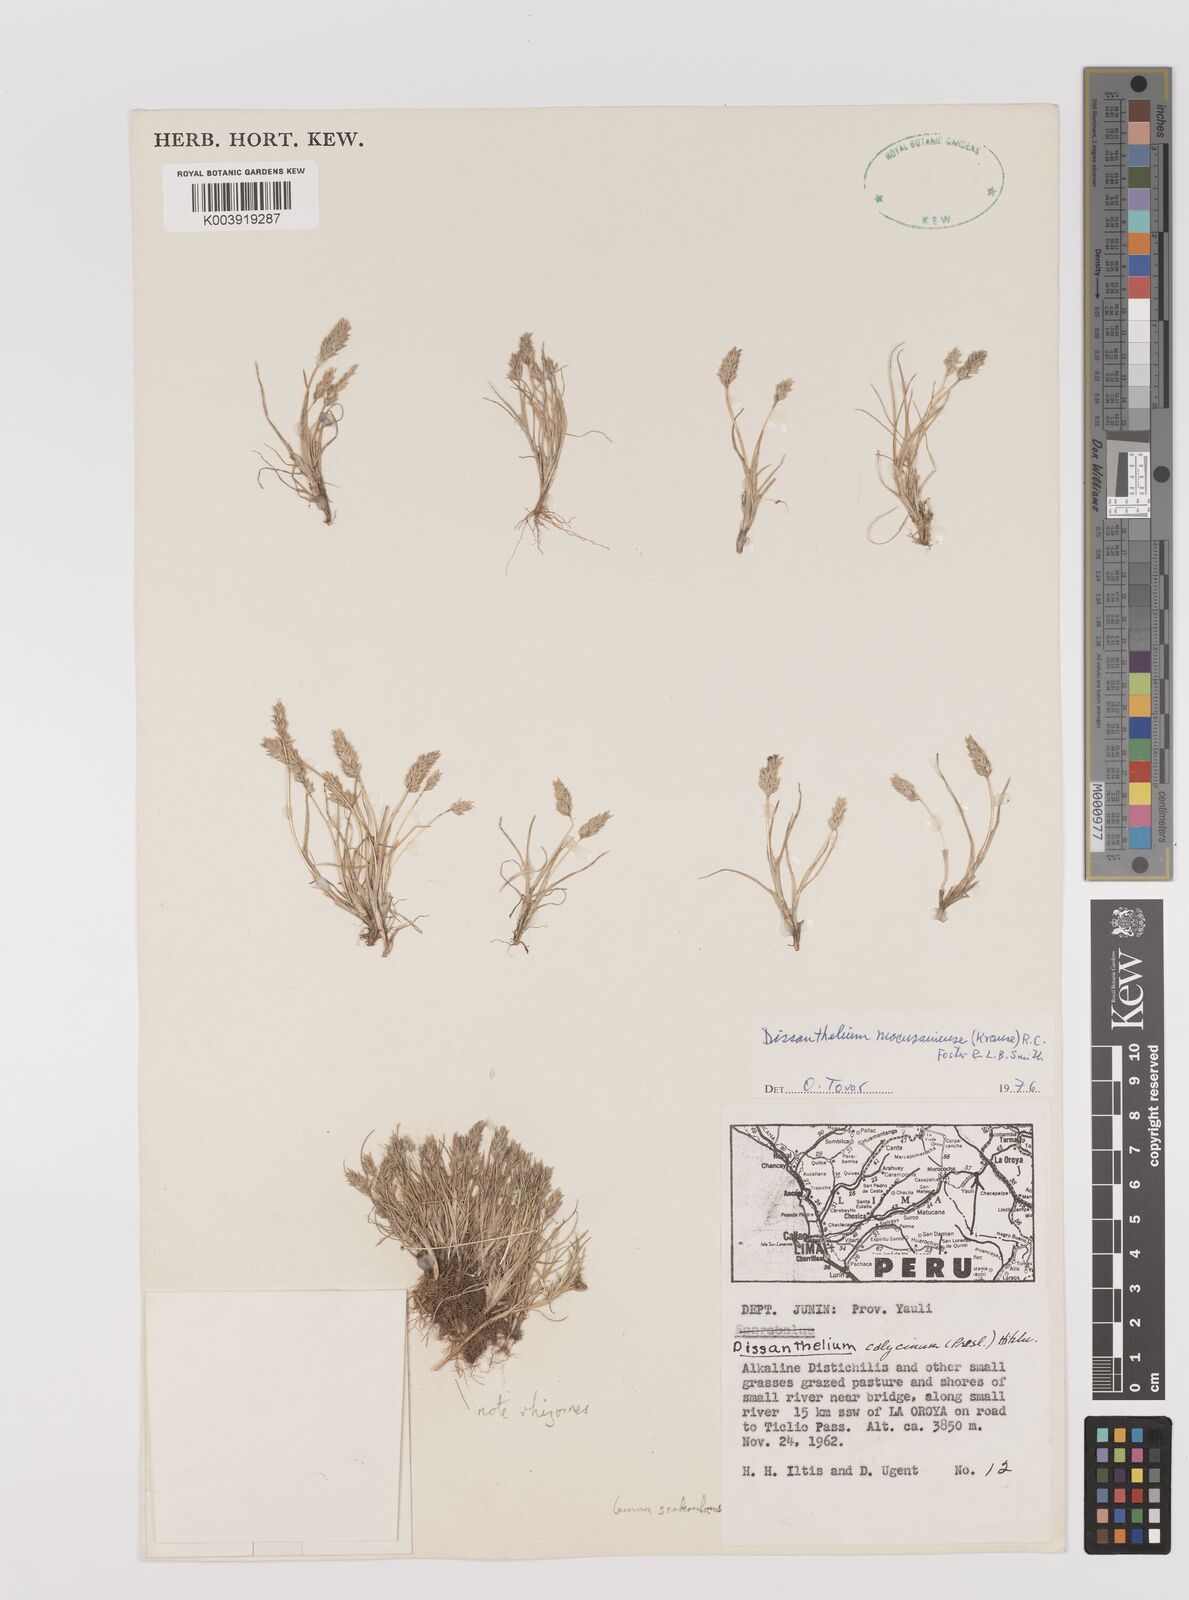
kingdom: Plantae
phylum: Tracheophyta
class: Liliopsida
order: Poales
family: Poaceae
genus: Poa
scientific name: Poa macusaniensis
